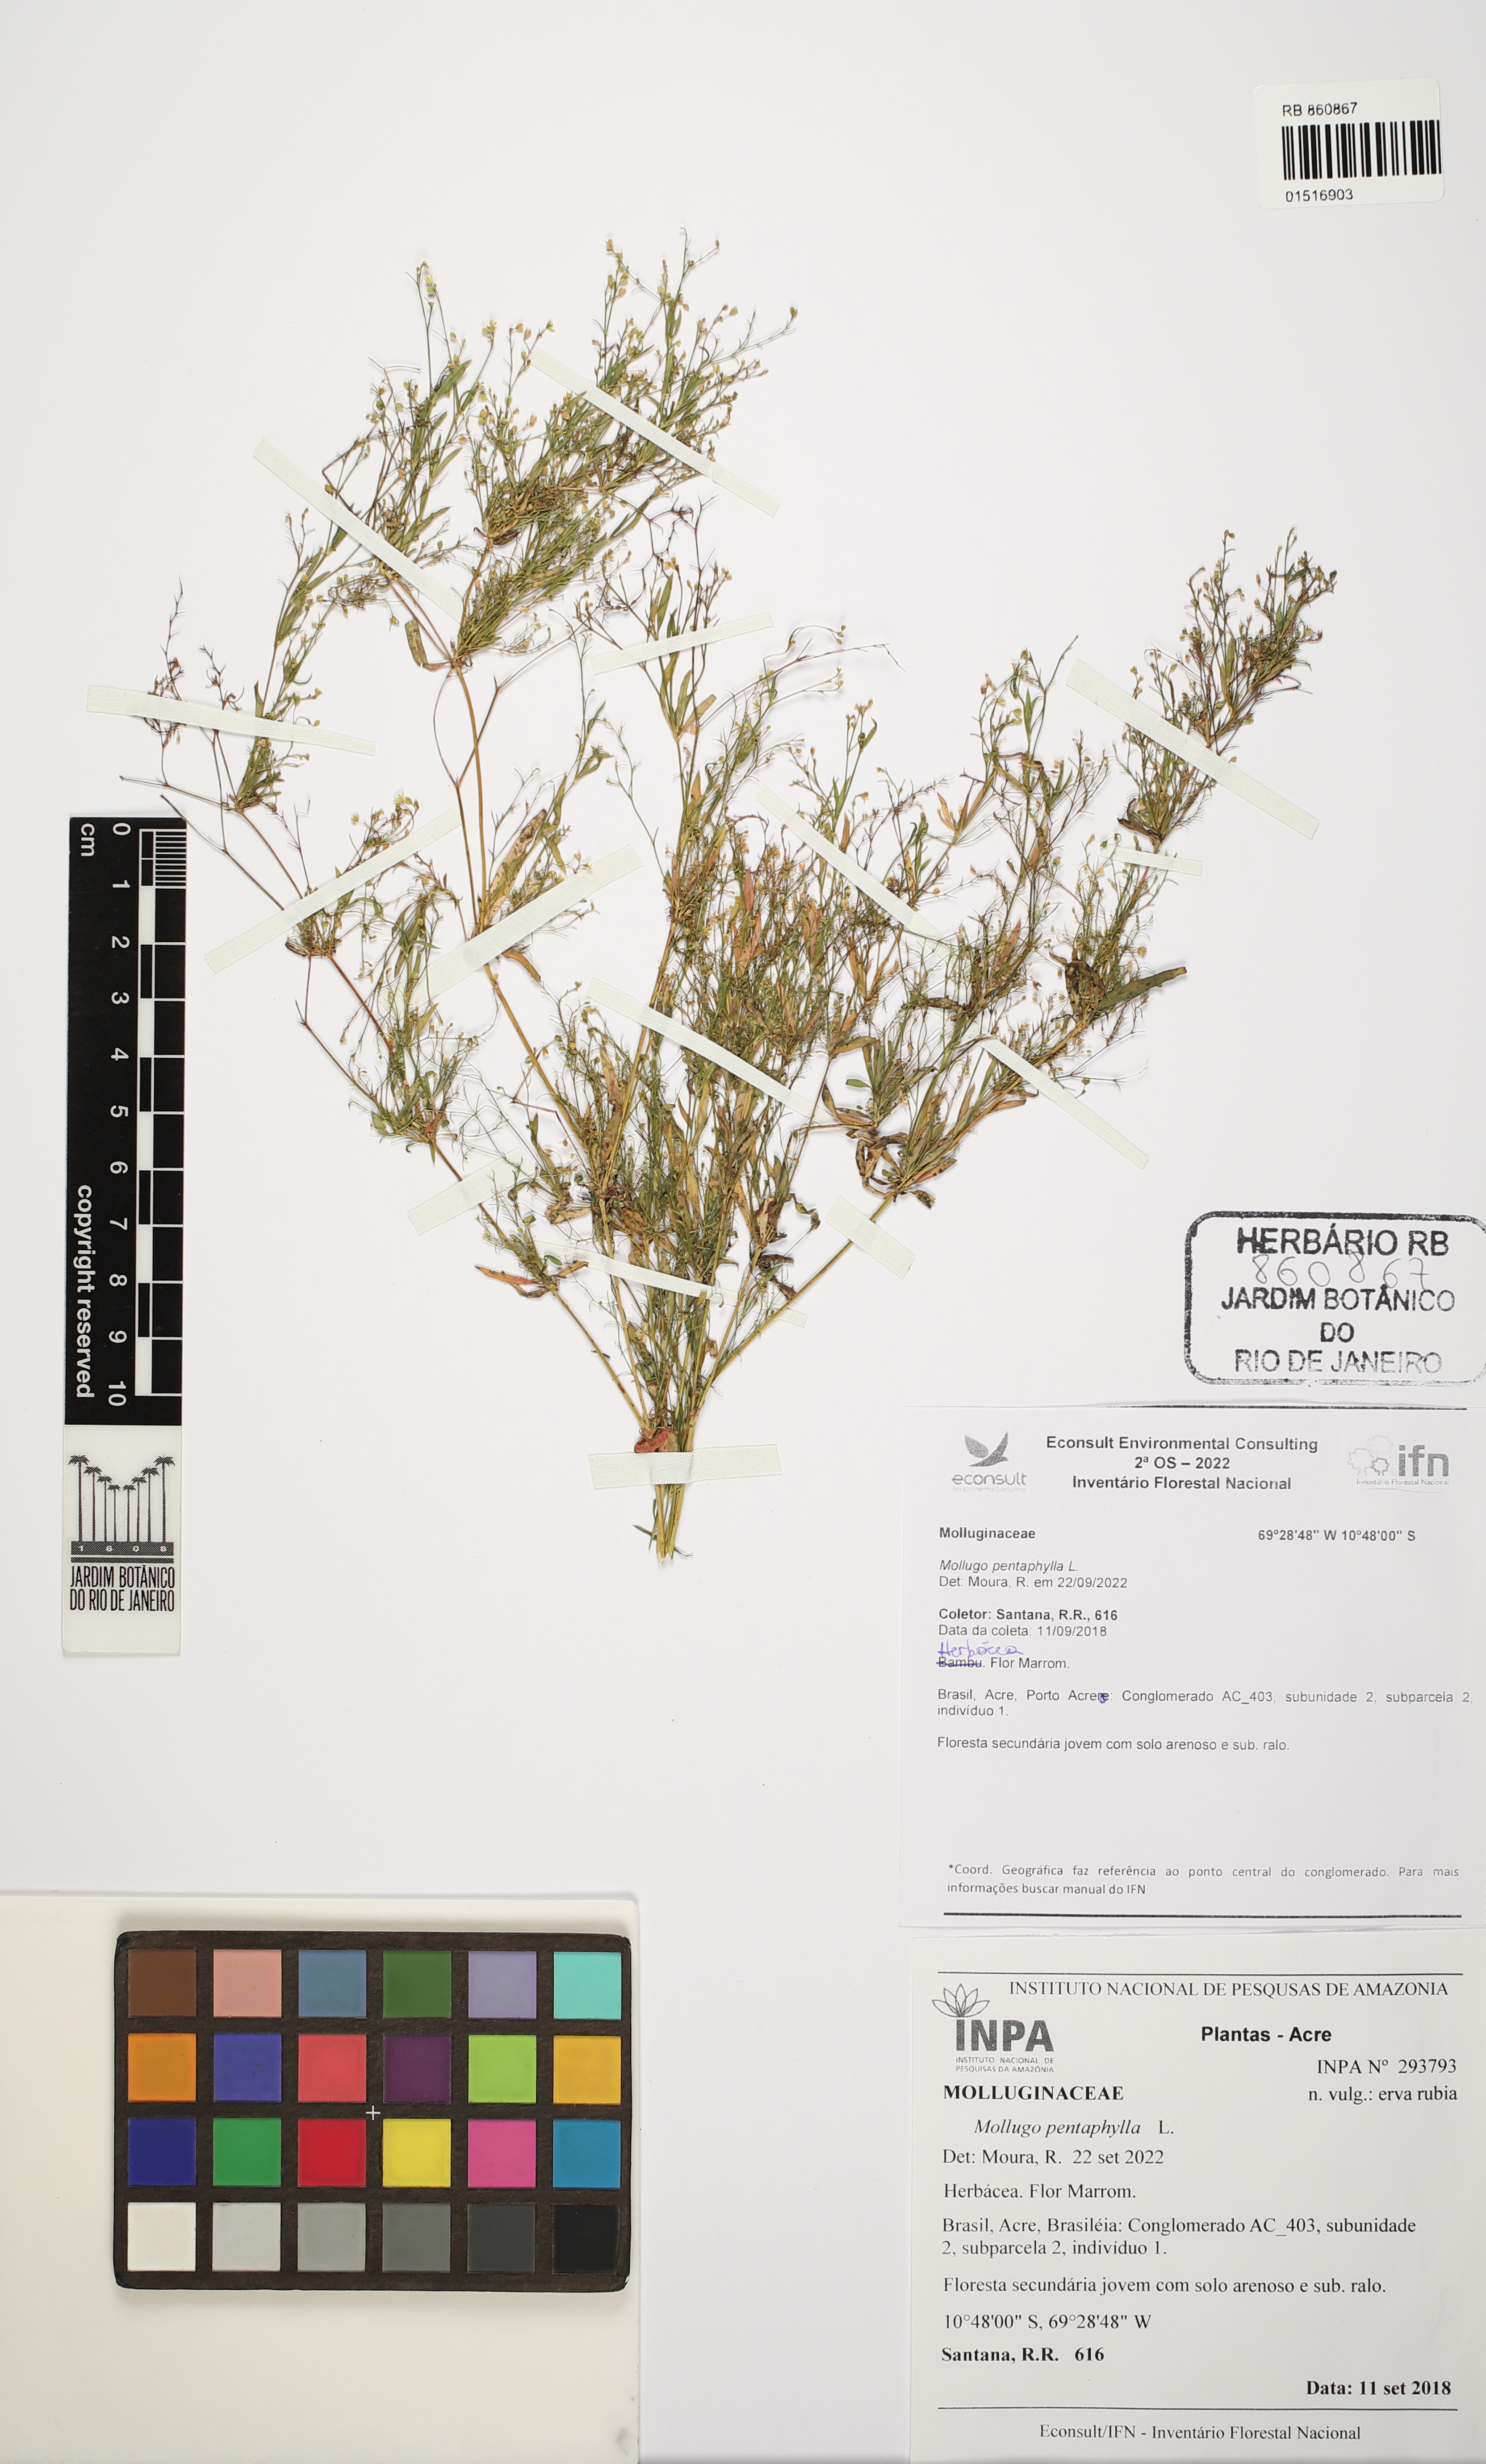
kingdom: Plantae
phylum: Tracheophyta
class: Magnoliopsida
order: Caryophyllales
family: Molluginaceae
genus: Trigastrotheca
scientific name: Trigastrotheca pentaphylla
